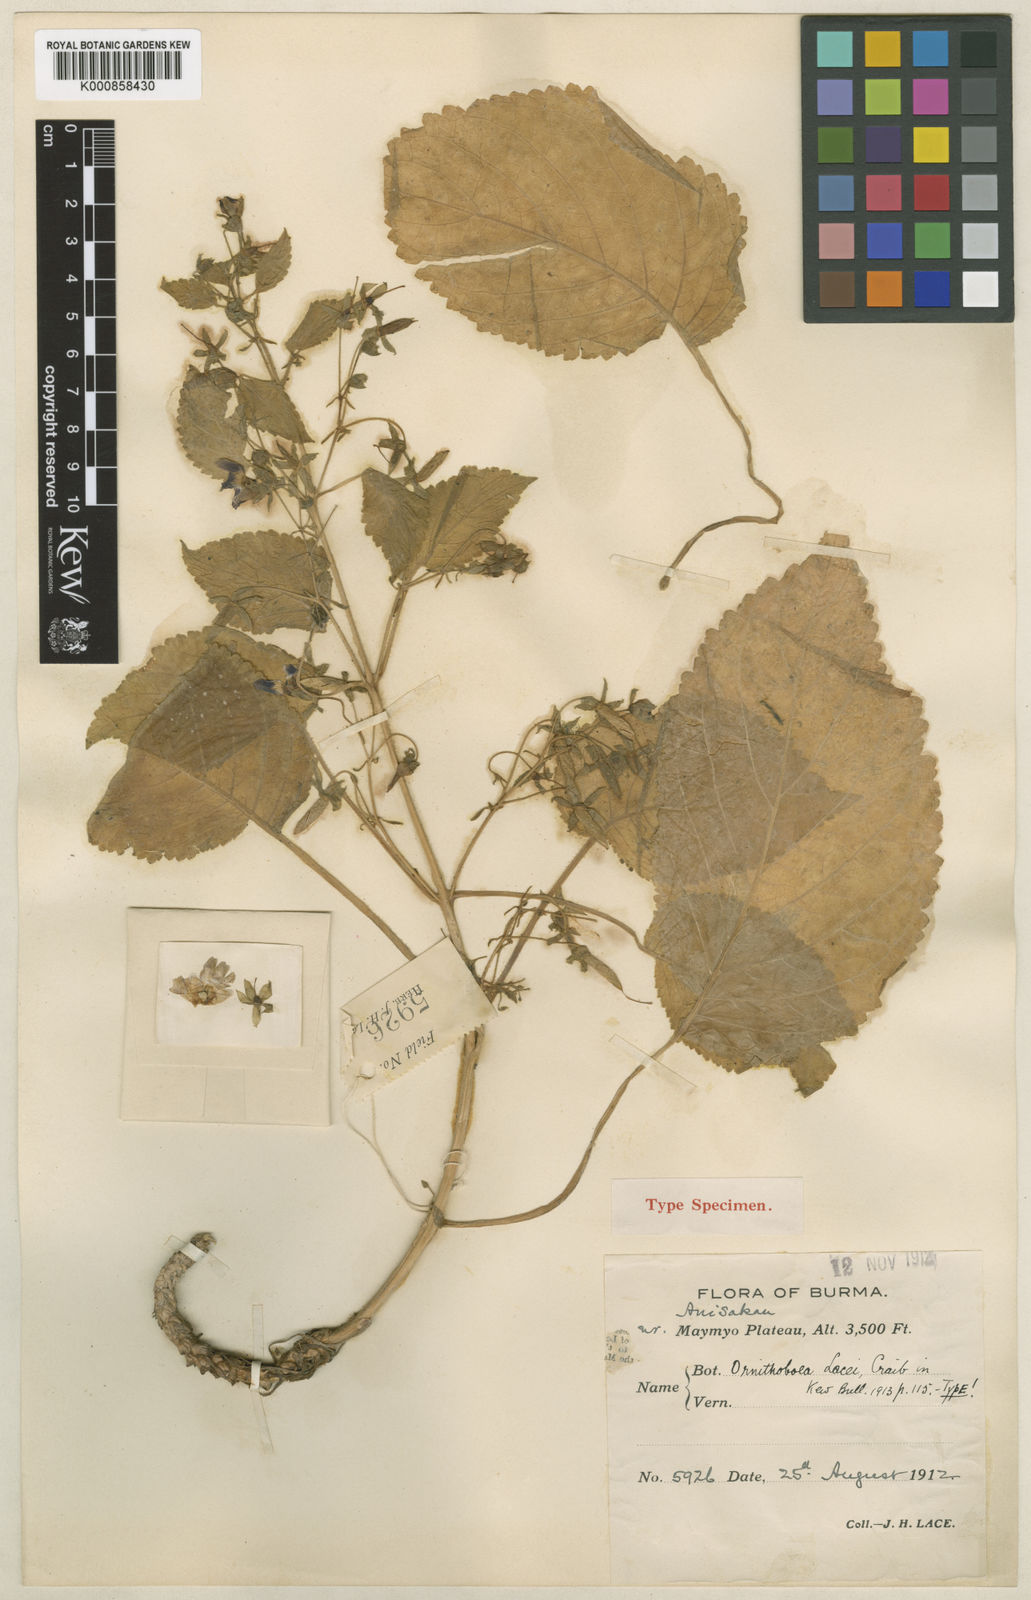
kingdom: Plantae
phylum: Tracheophyta
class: Magnoliopsida
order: Lamiales
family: Gesneriaceae
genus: Ornithoboea
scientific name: Ornithoboea lacei
